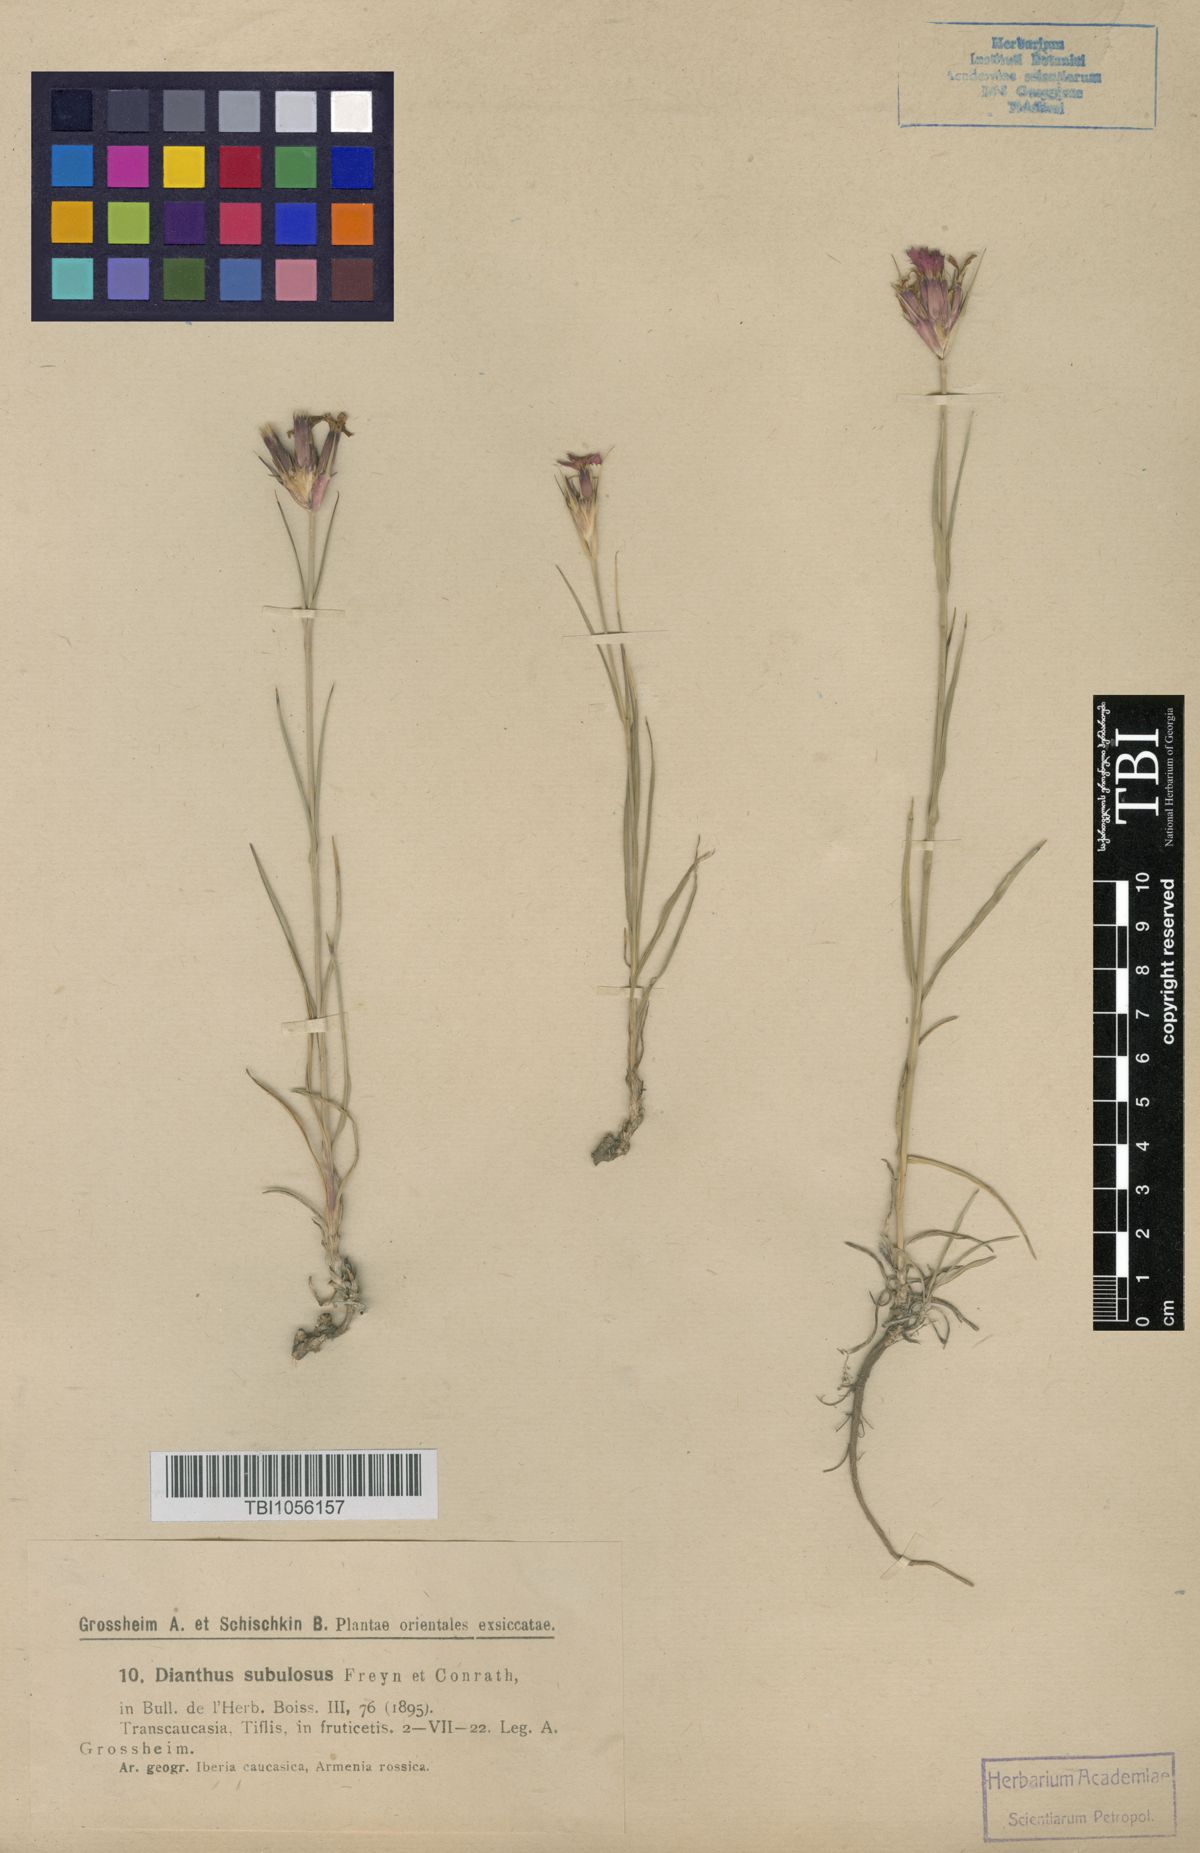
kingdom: Plantae
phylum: Tracheophyta
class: Magnoliopsida
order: Caryophyllales
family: Caryophyllaceae
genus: Dianthus
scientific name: Dianthus subulosus
